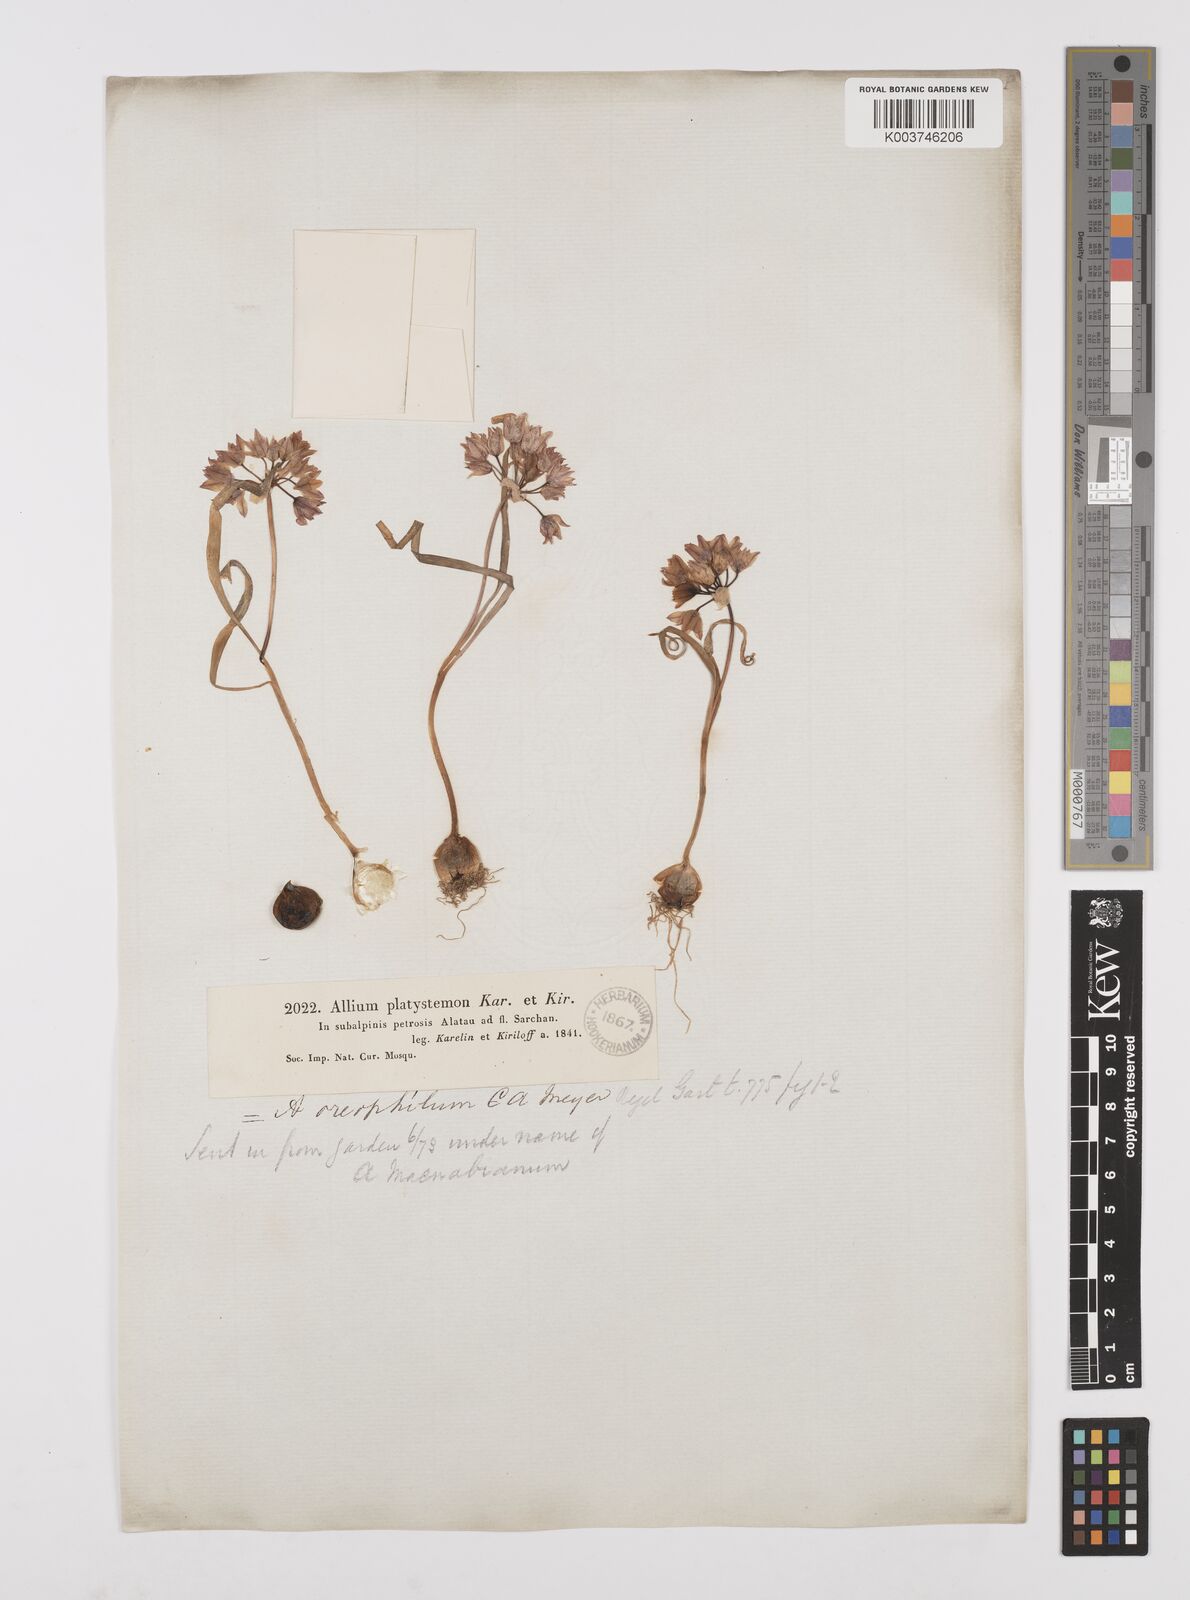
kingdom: Plantae
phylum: Tracheophyta
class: Liliopsida
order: Asparagales
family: Amaryllidaceae
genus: Allium
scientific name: Allium oreophilum
